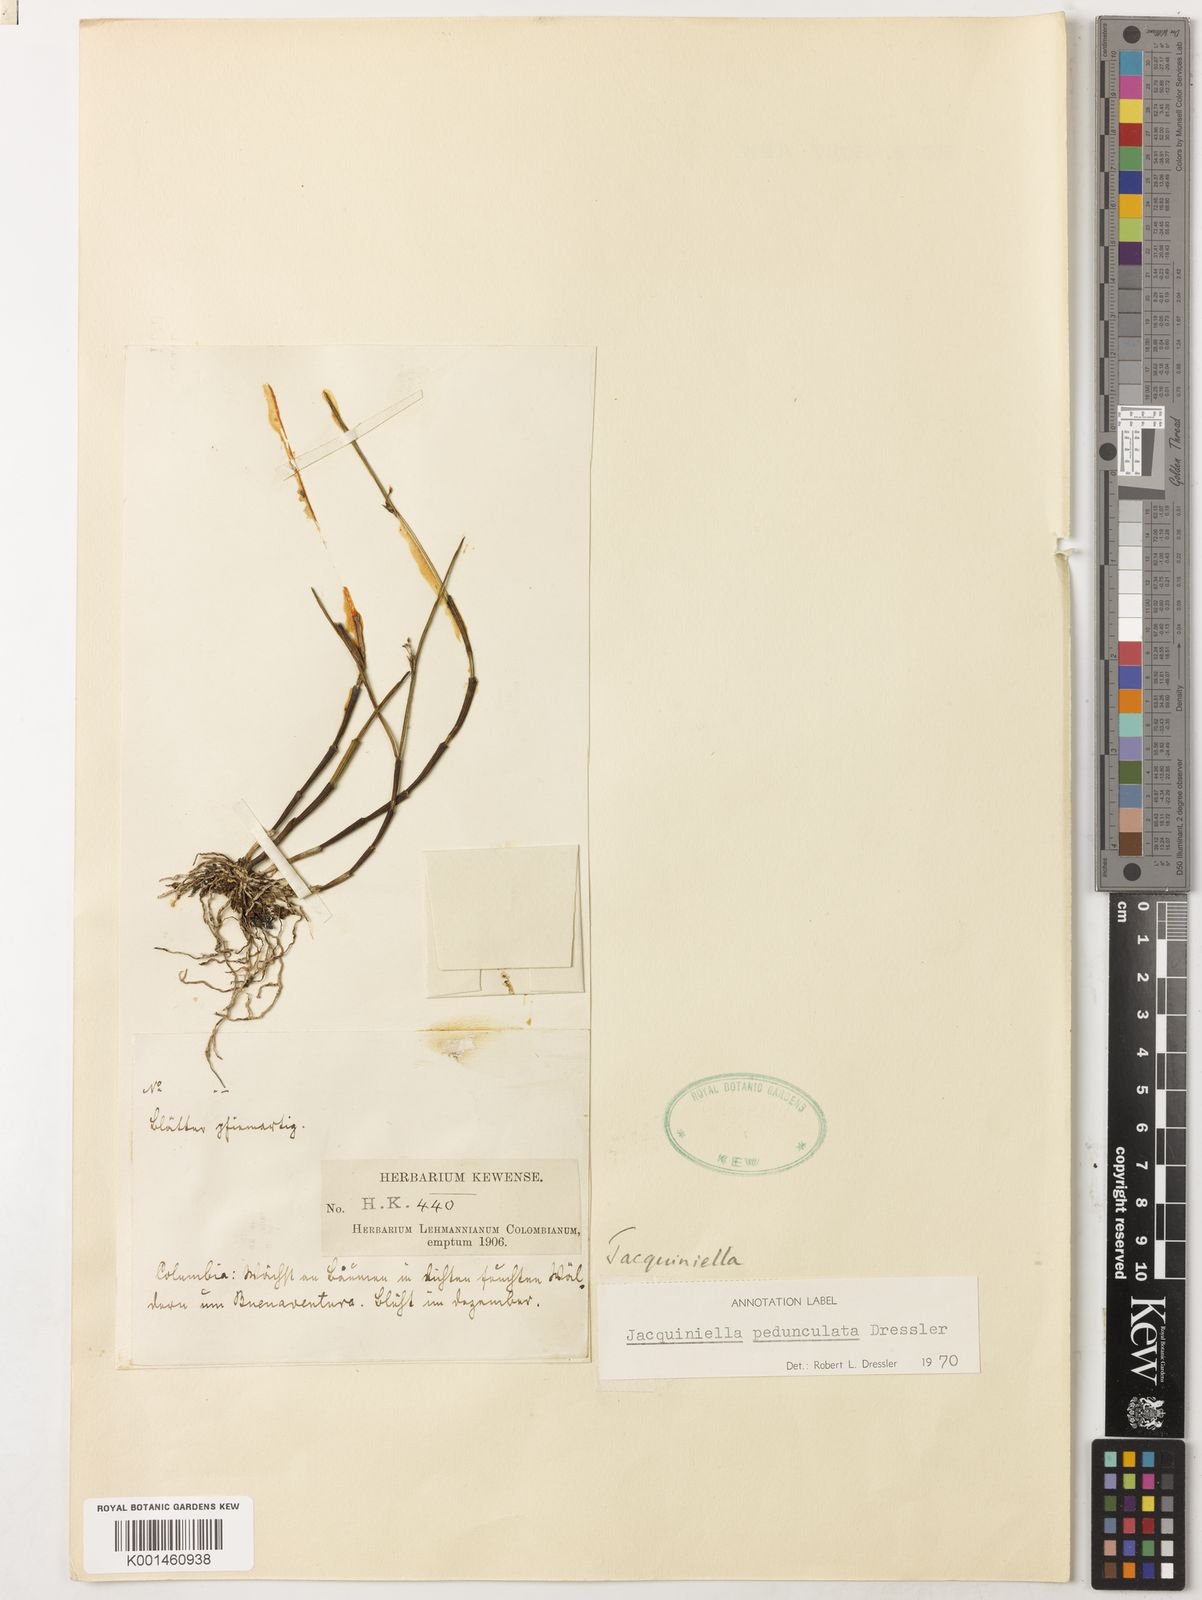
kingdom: Plantae
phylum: Tracheophyta
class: Liliopsida
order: Asparagales
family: Orchidaceae
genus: Jacquiniella
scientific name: Jacquiniella pedunculata
